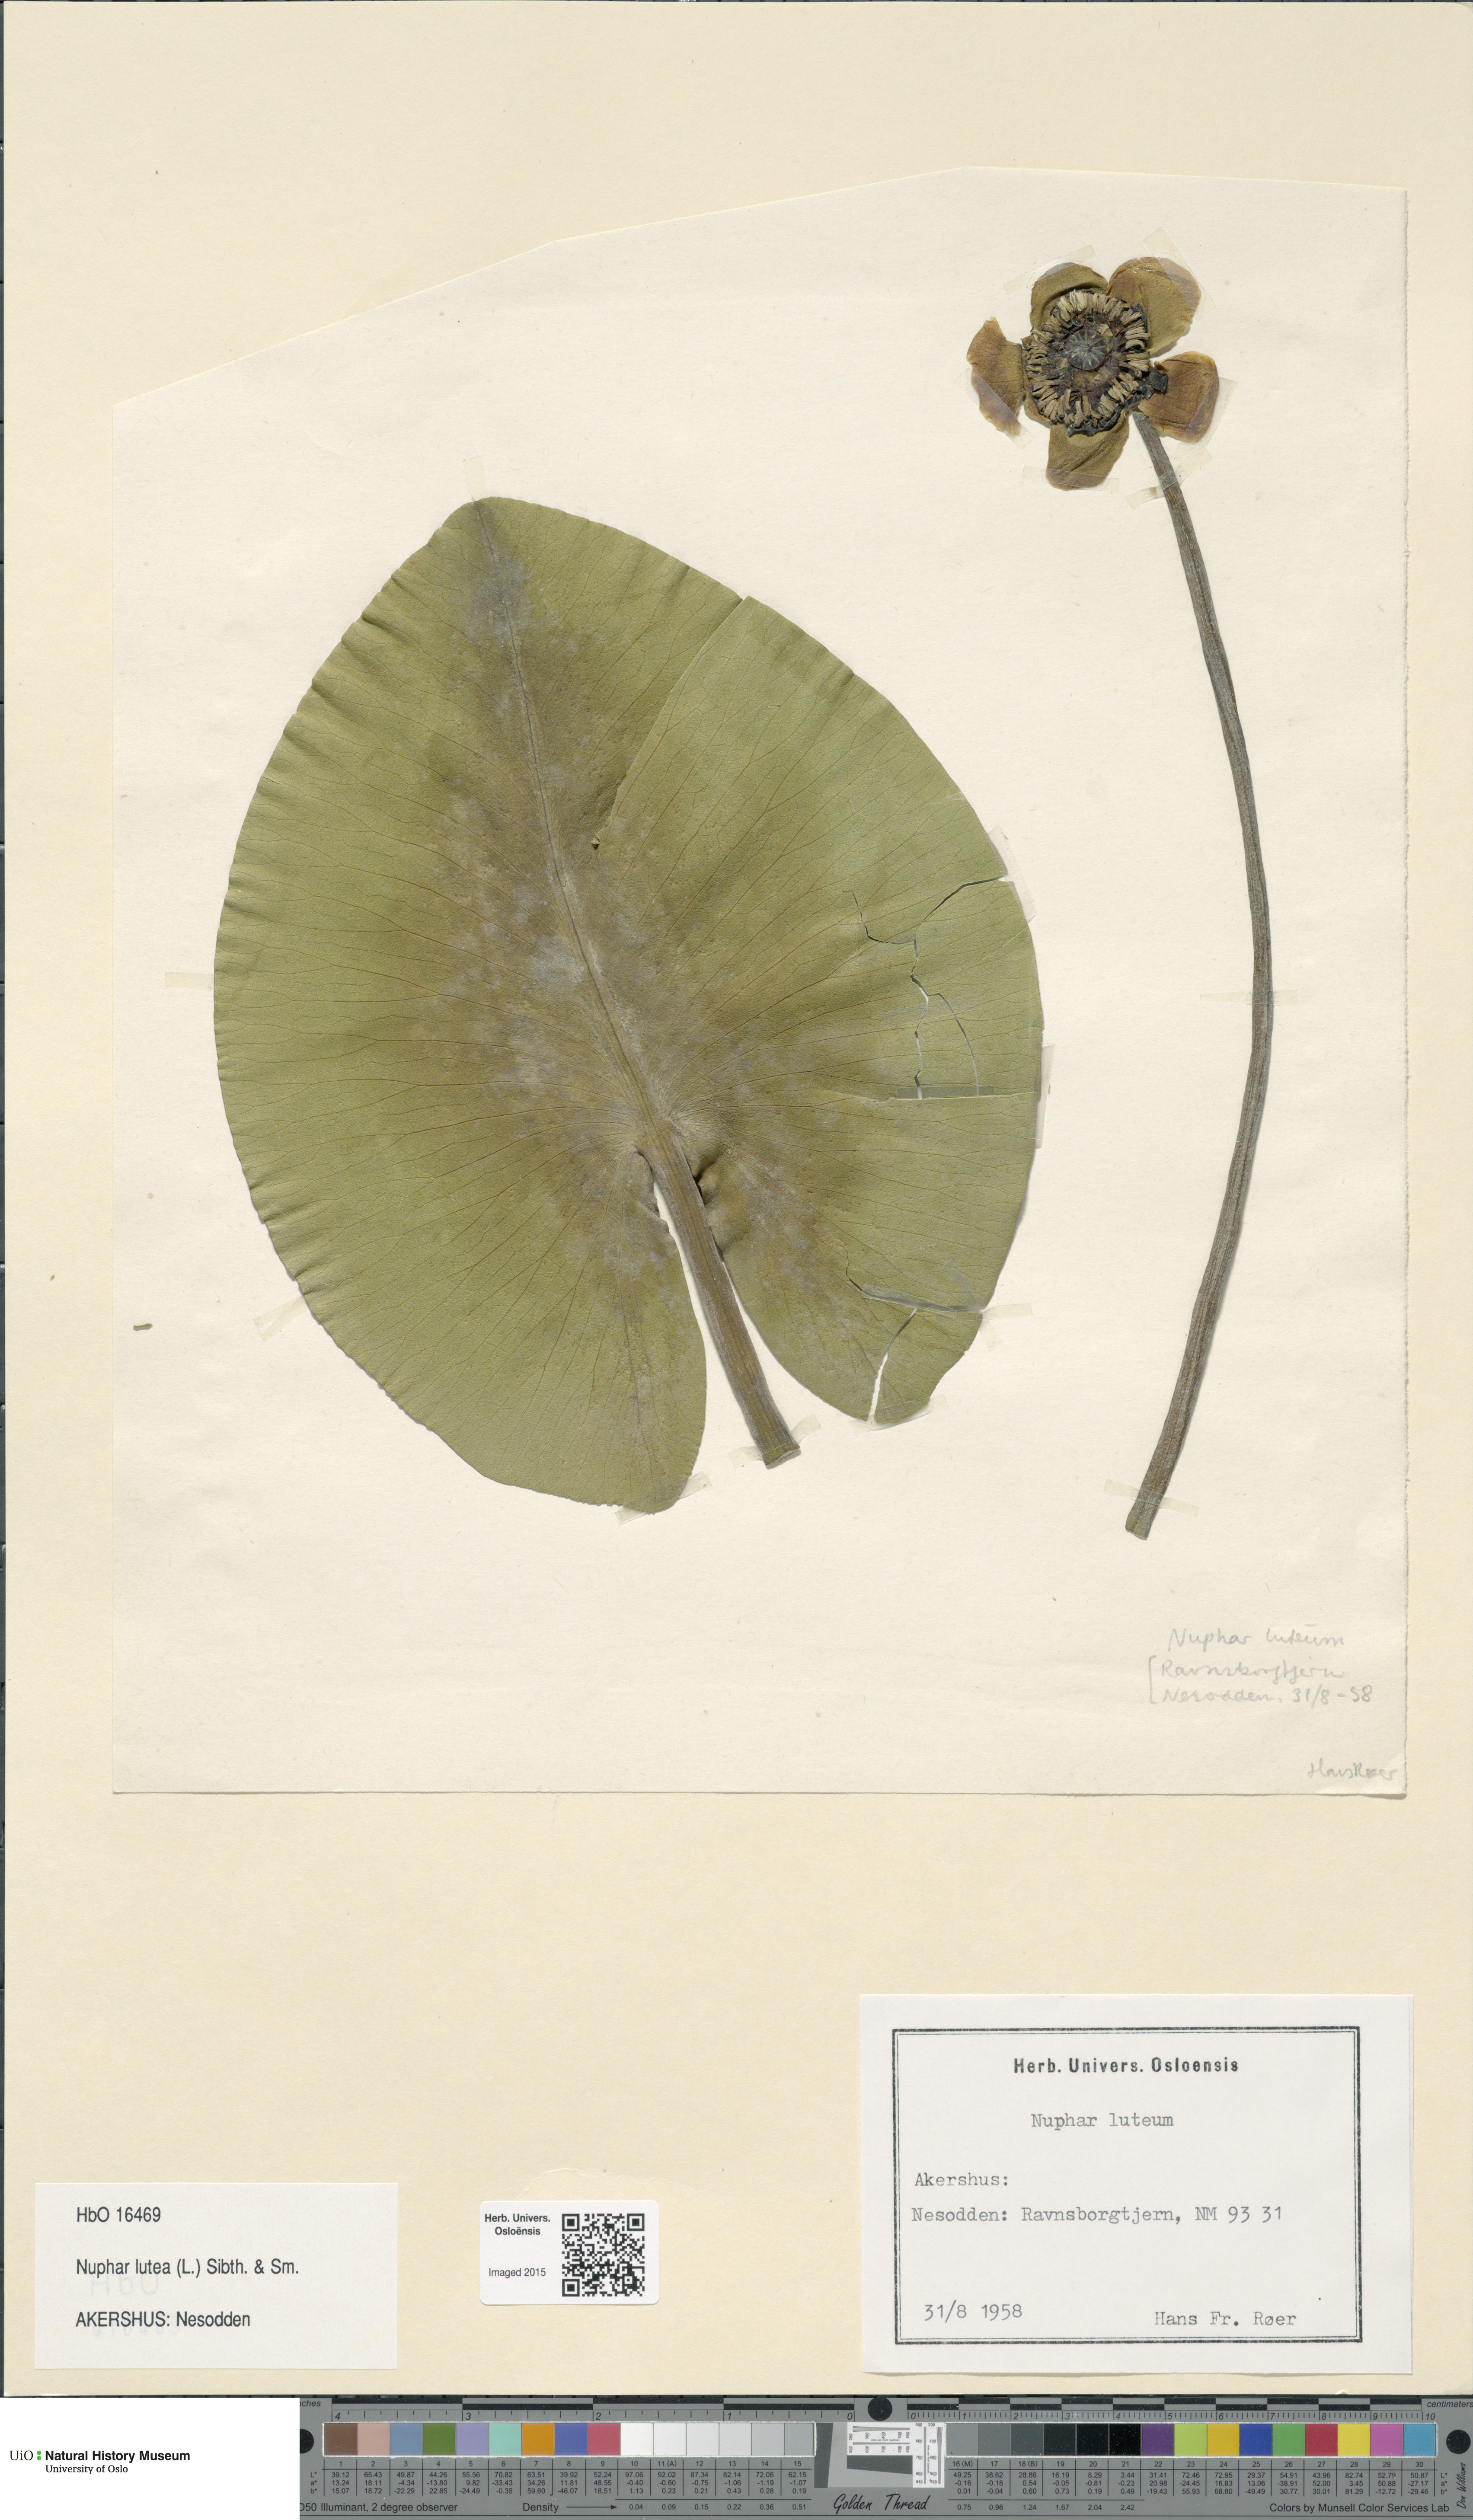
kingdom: Plantae
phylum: Tracheophyta
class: Magnoliopsida
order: Nymphaeales
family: Nymphaeaceae
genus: Nuphar
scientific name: Nuphar lutea
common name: Yellow water-lily
